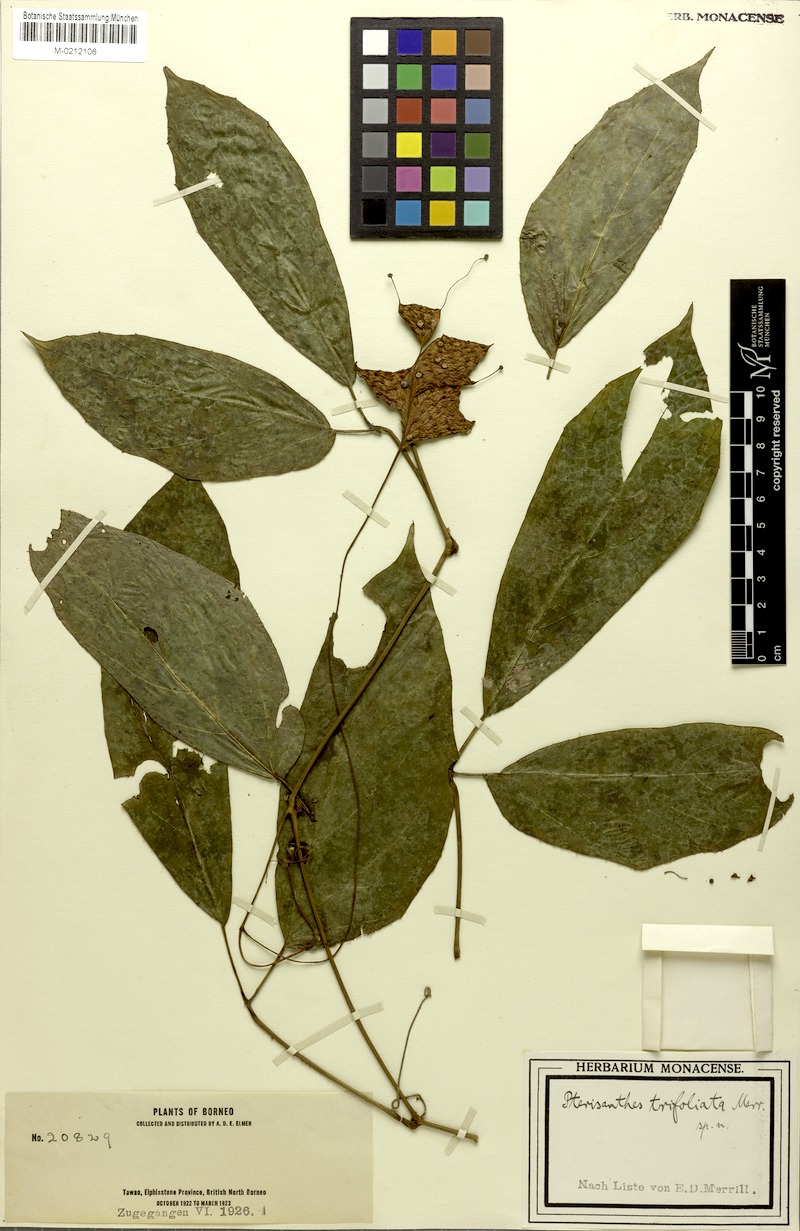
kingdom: Plantae
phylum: Tracheophyta
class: Magnoliopsida
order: Vitales
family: Vitaceae
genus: Pterisanthes
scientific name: Pterisanthes cissioides
